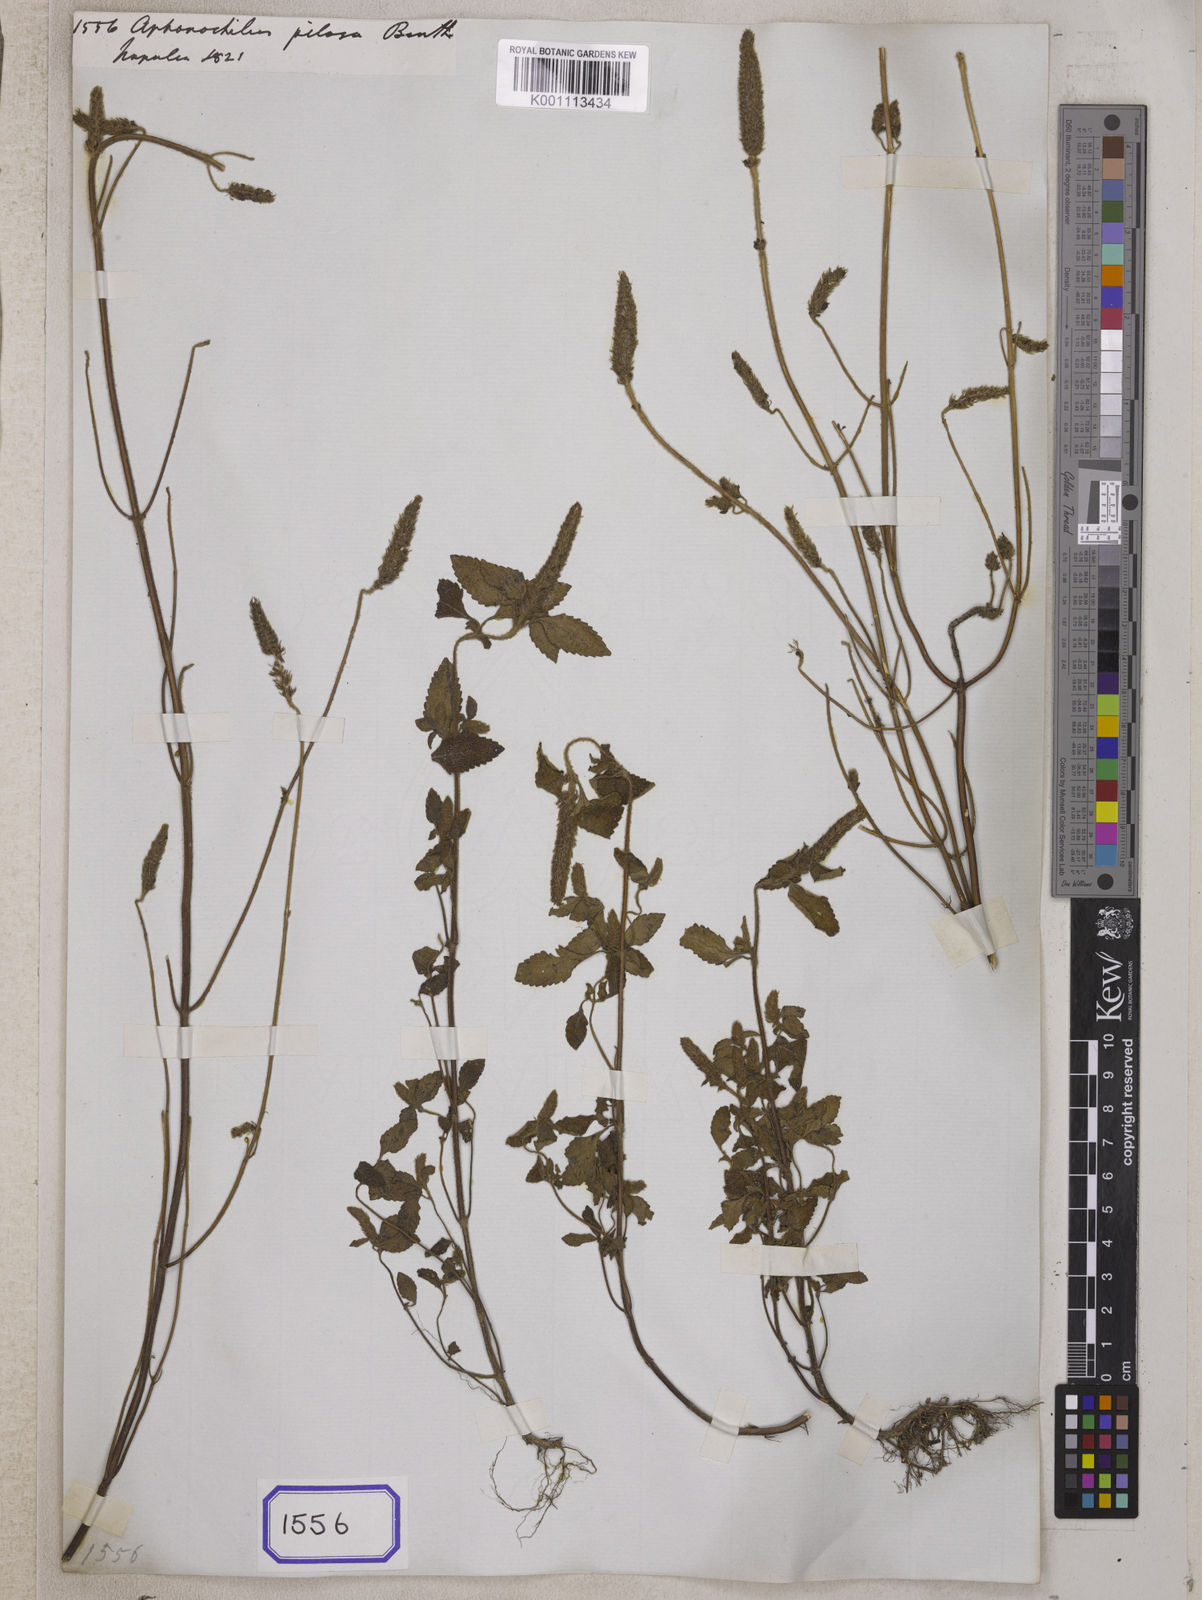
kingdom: Plantae
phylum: Tracheophyta
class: Magnoliopsida
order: Lamiales
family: Lamiaceae
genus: Elsholtzia
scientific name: Elsholtzia pilosa
